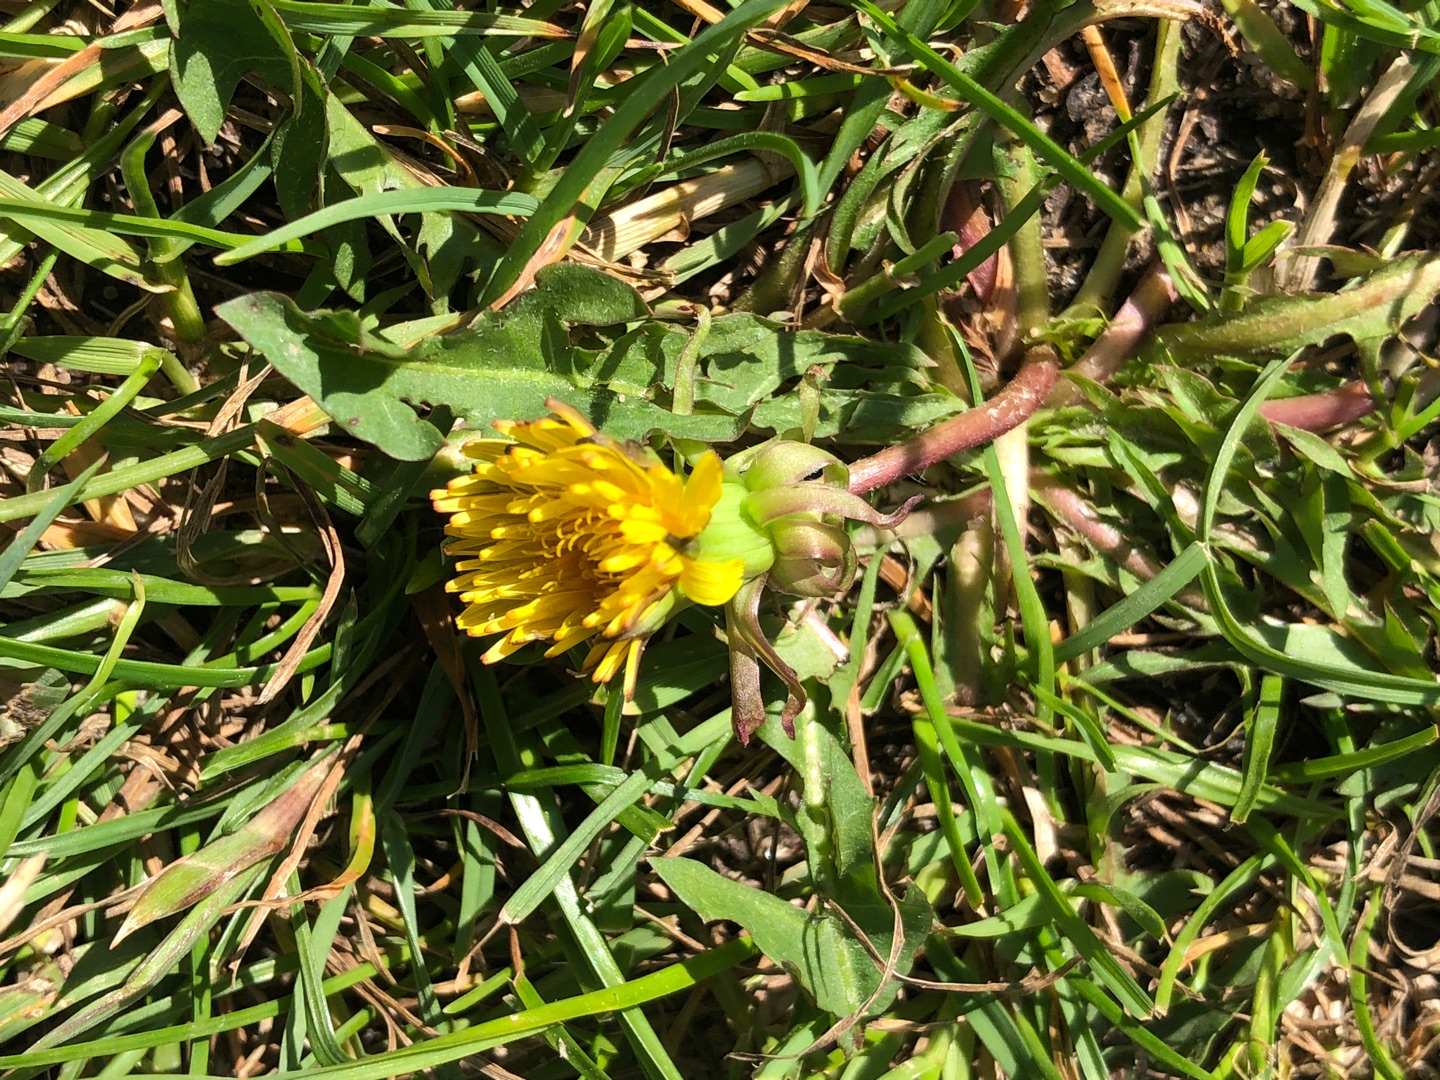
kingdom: Plantae
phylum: Tracheophyta
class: Magnoliopsida
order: Asterales
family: Asteraceae
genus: Taraxacum
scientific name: Taraxacum
